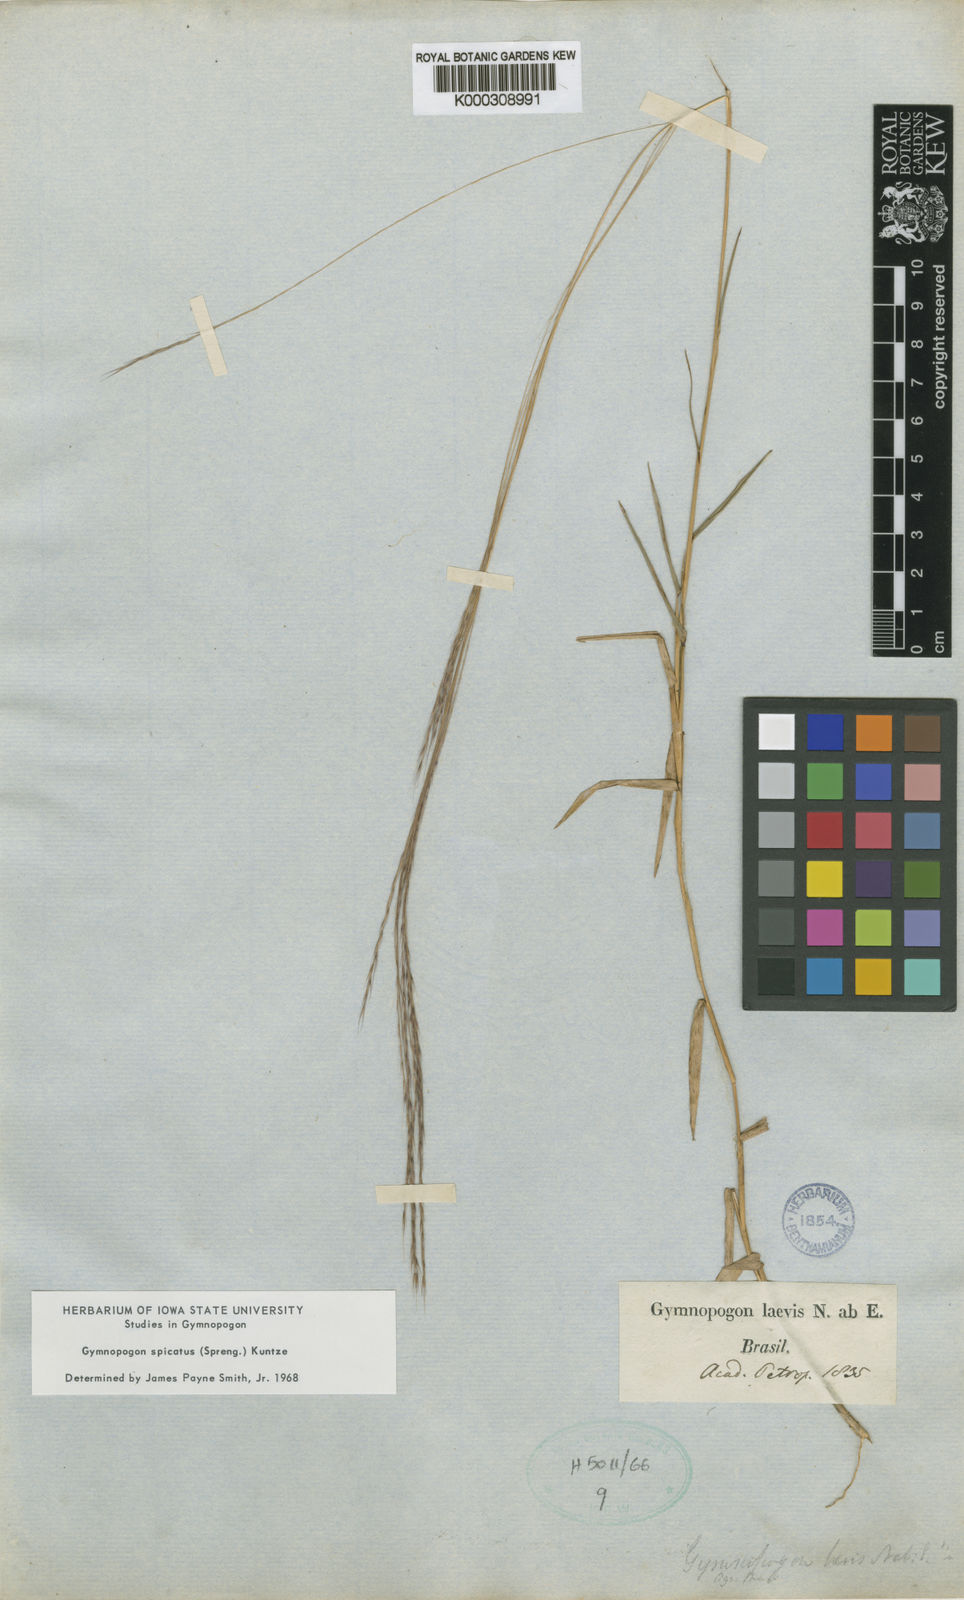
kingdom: Plantae
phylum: Tracheophyta
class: Liliopsida
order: Poales
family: Poaceae
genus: Gymnopogon
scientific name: Gymnopogon spicatus
